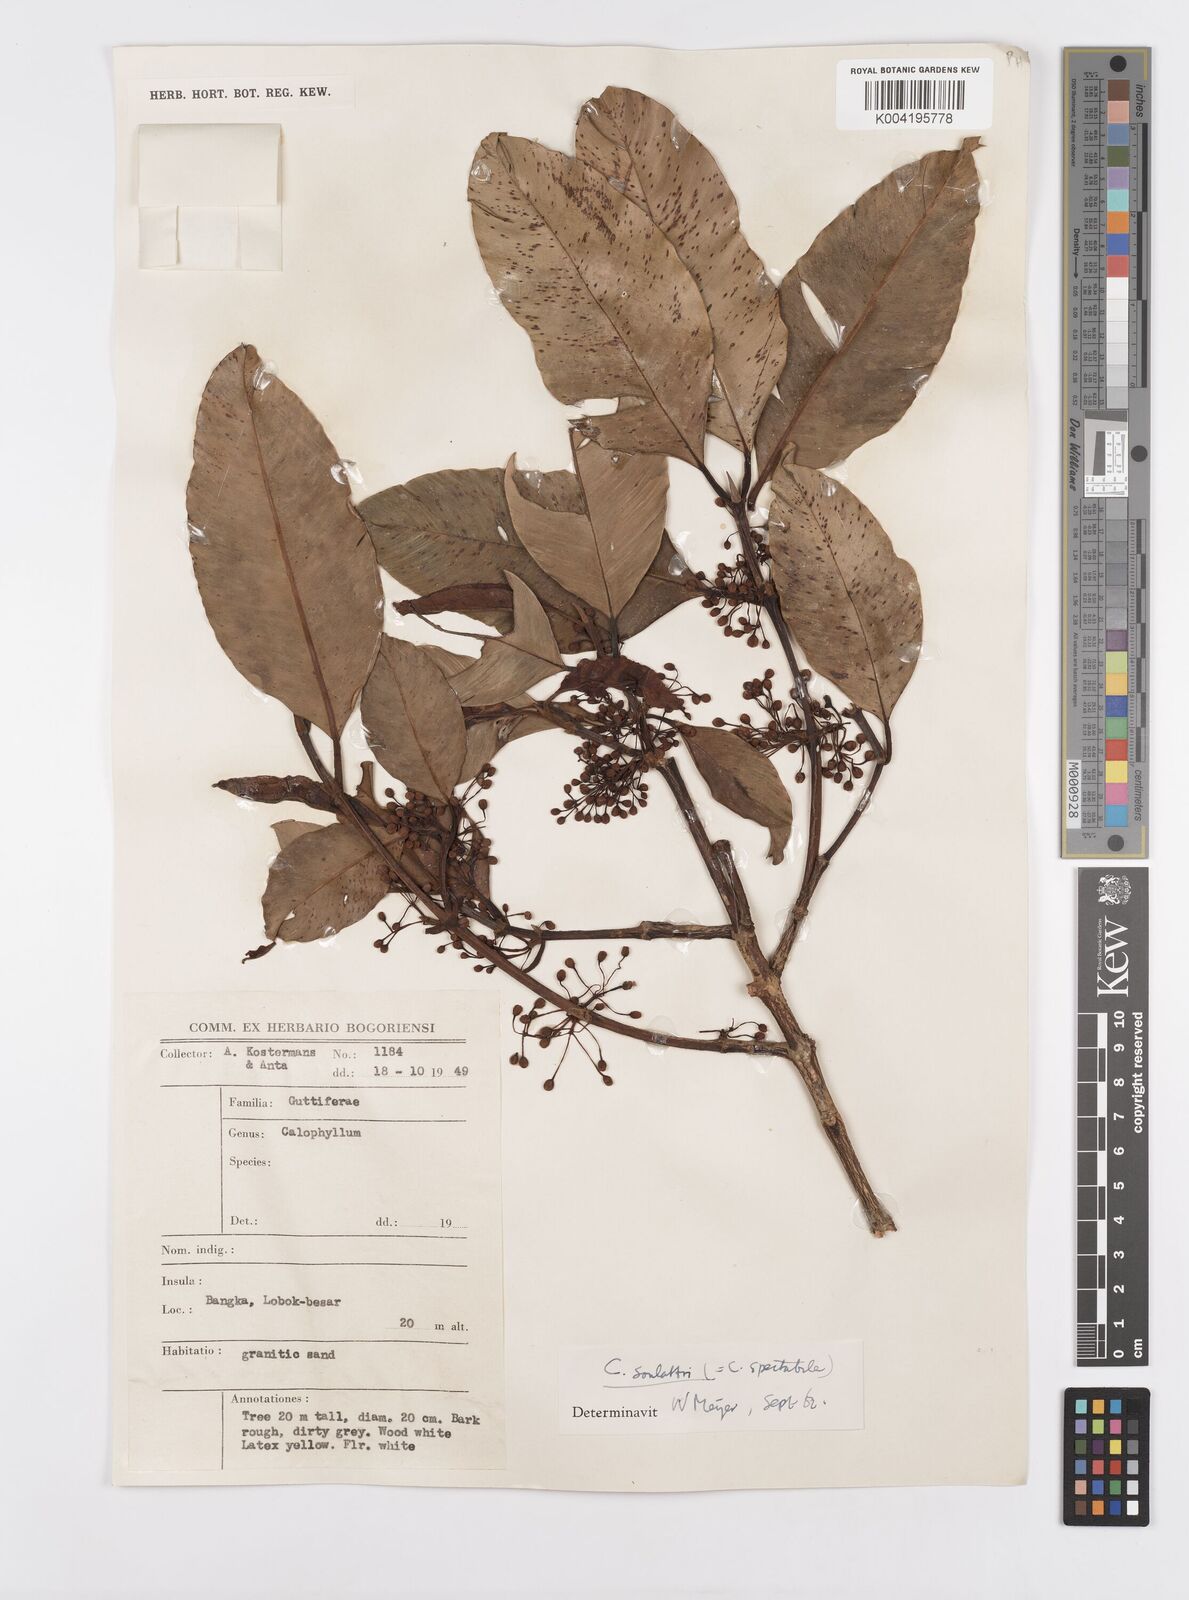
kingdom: Plantae
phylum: Tracheophyta
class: Magnoliopsida
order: Malpighiales
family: Calophyllaceae
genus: Calophyllum
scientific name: Calophyllum soulattri
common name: Bitangoor boonot
